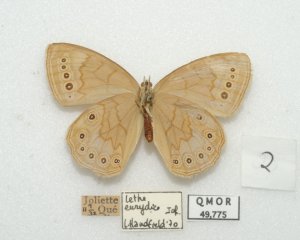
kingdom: Animalia
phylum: Arthropoda
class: Insecta
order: Lepidoptera
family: Nymphalidae
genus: Lethe
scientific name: Lethe eurydice
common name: Eyed Brown
